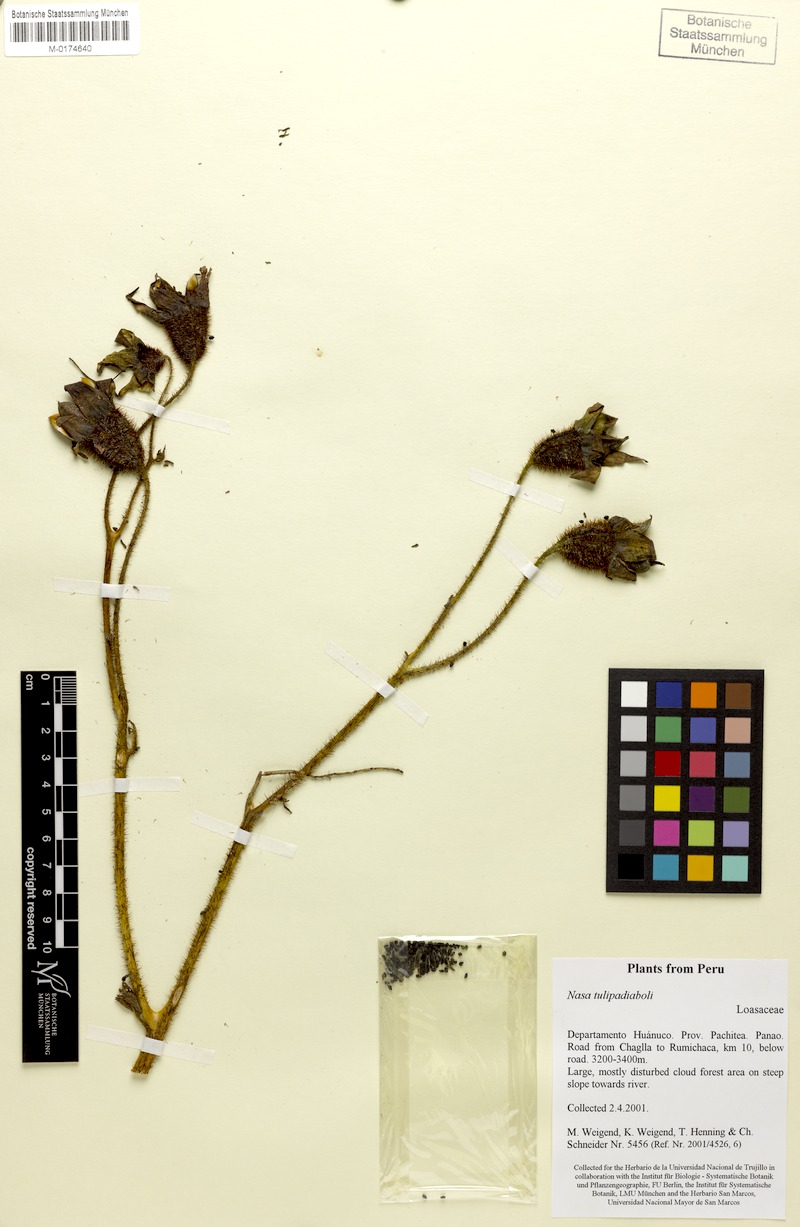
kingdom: Plantae
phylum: Tracheophyta
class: Magnoliopsida
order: Cornales
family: Loasaceae
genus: Nasa
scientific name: Nasa tulipadiaboli
